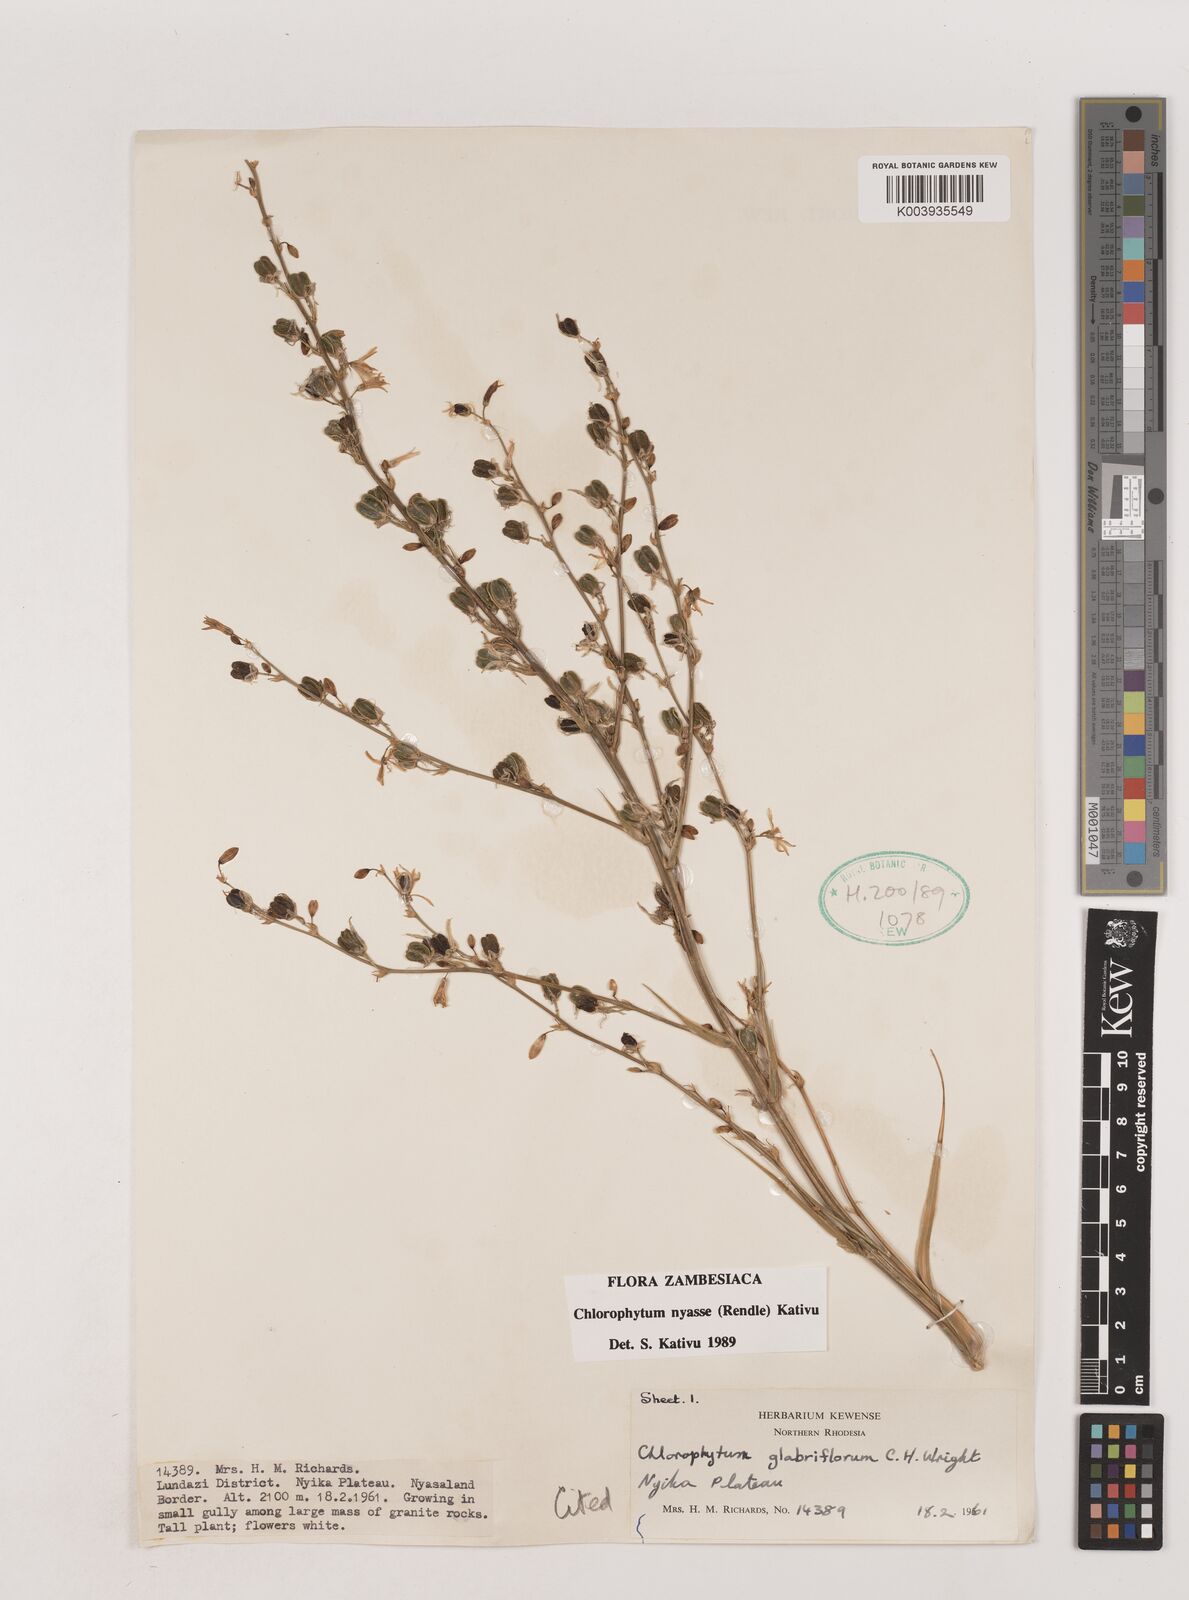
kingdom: Plantae
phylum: Tracheophyta
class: Liliopsida
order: Asparagales
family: Asparagaceae
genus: Chlorophytum
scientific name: Chlorophytum nyasae
